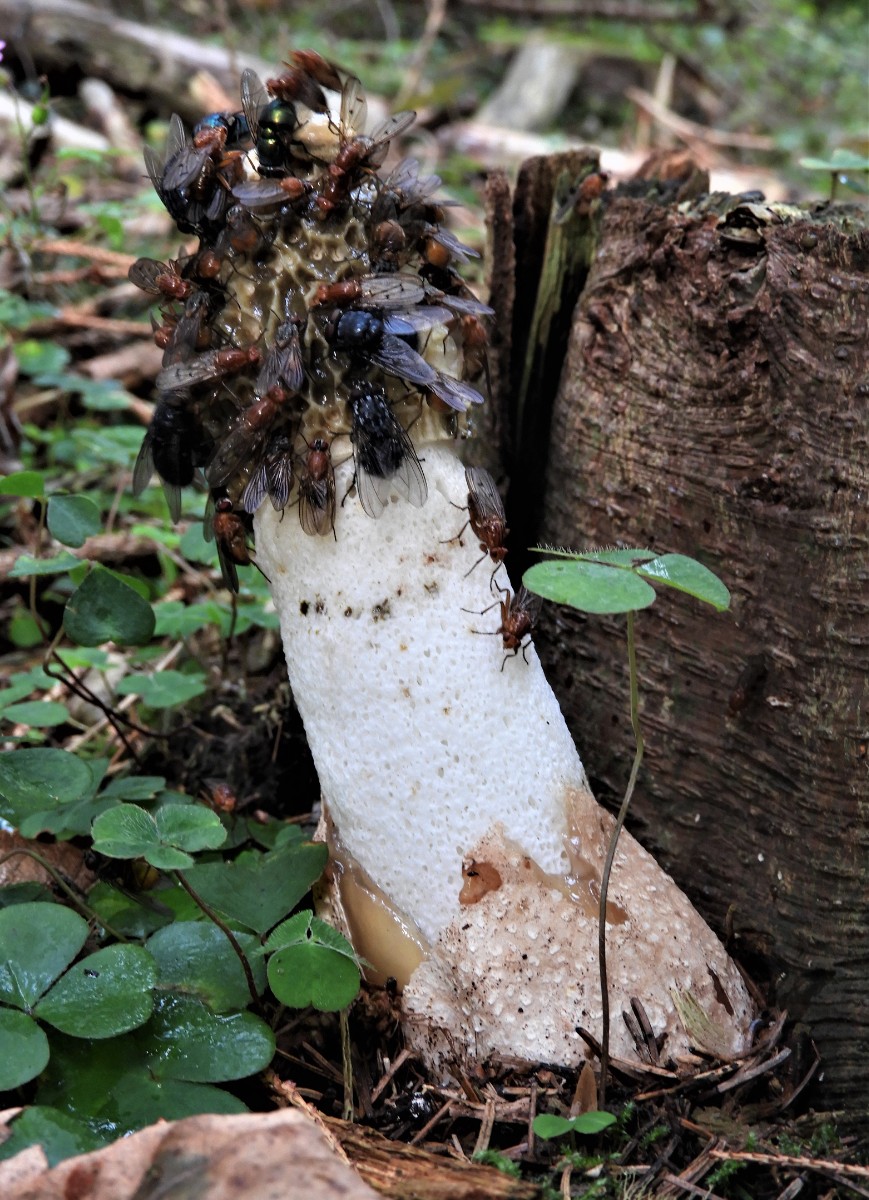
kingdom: Fungi
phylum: Basidiomycota
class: Agaricomycetes
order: Phallales
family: Phallaceae
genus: Phallus
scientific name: Phallus impudicus
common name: almindelig stinksvamp
